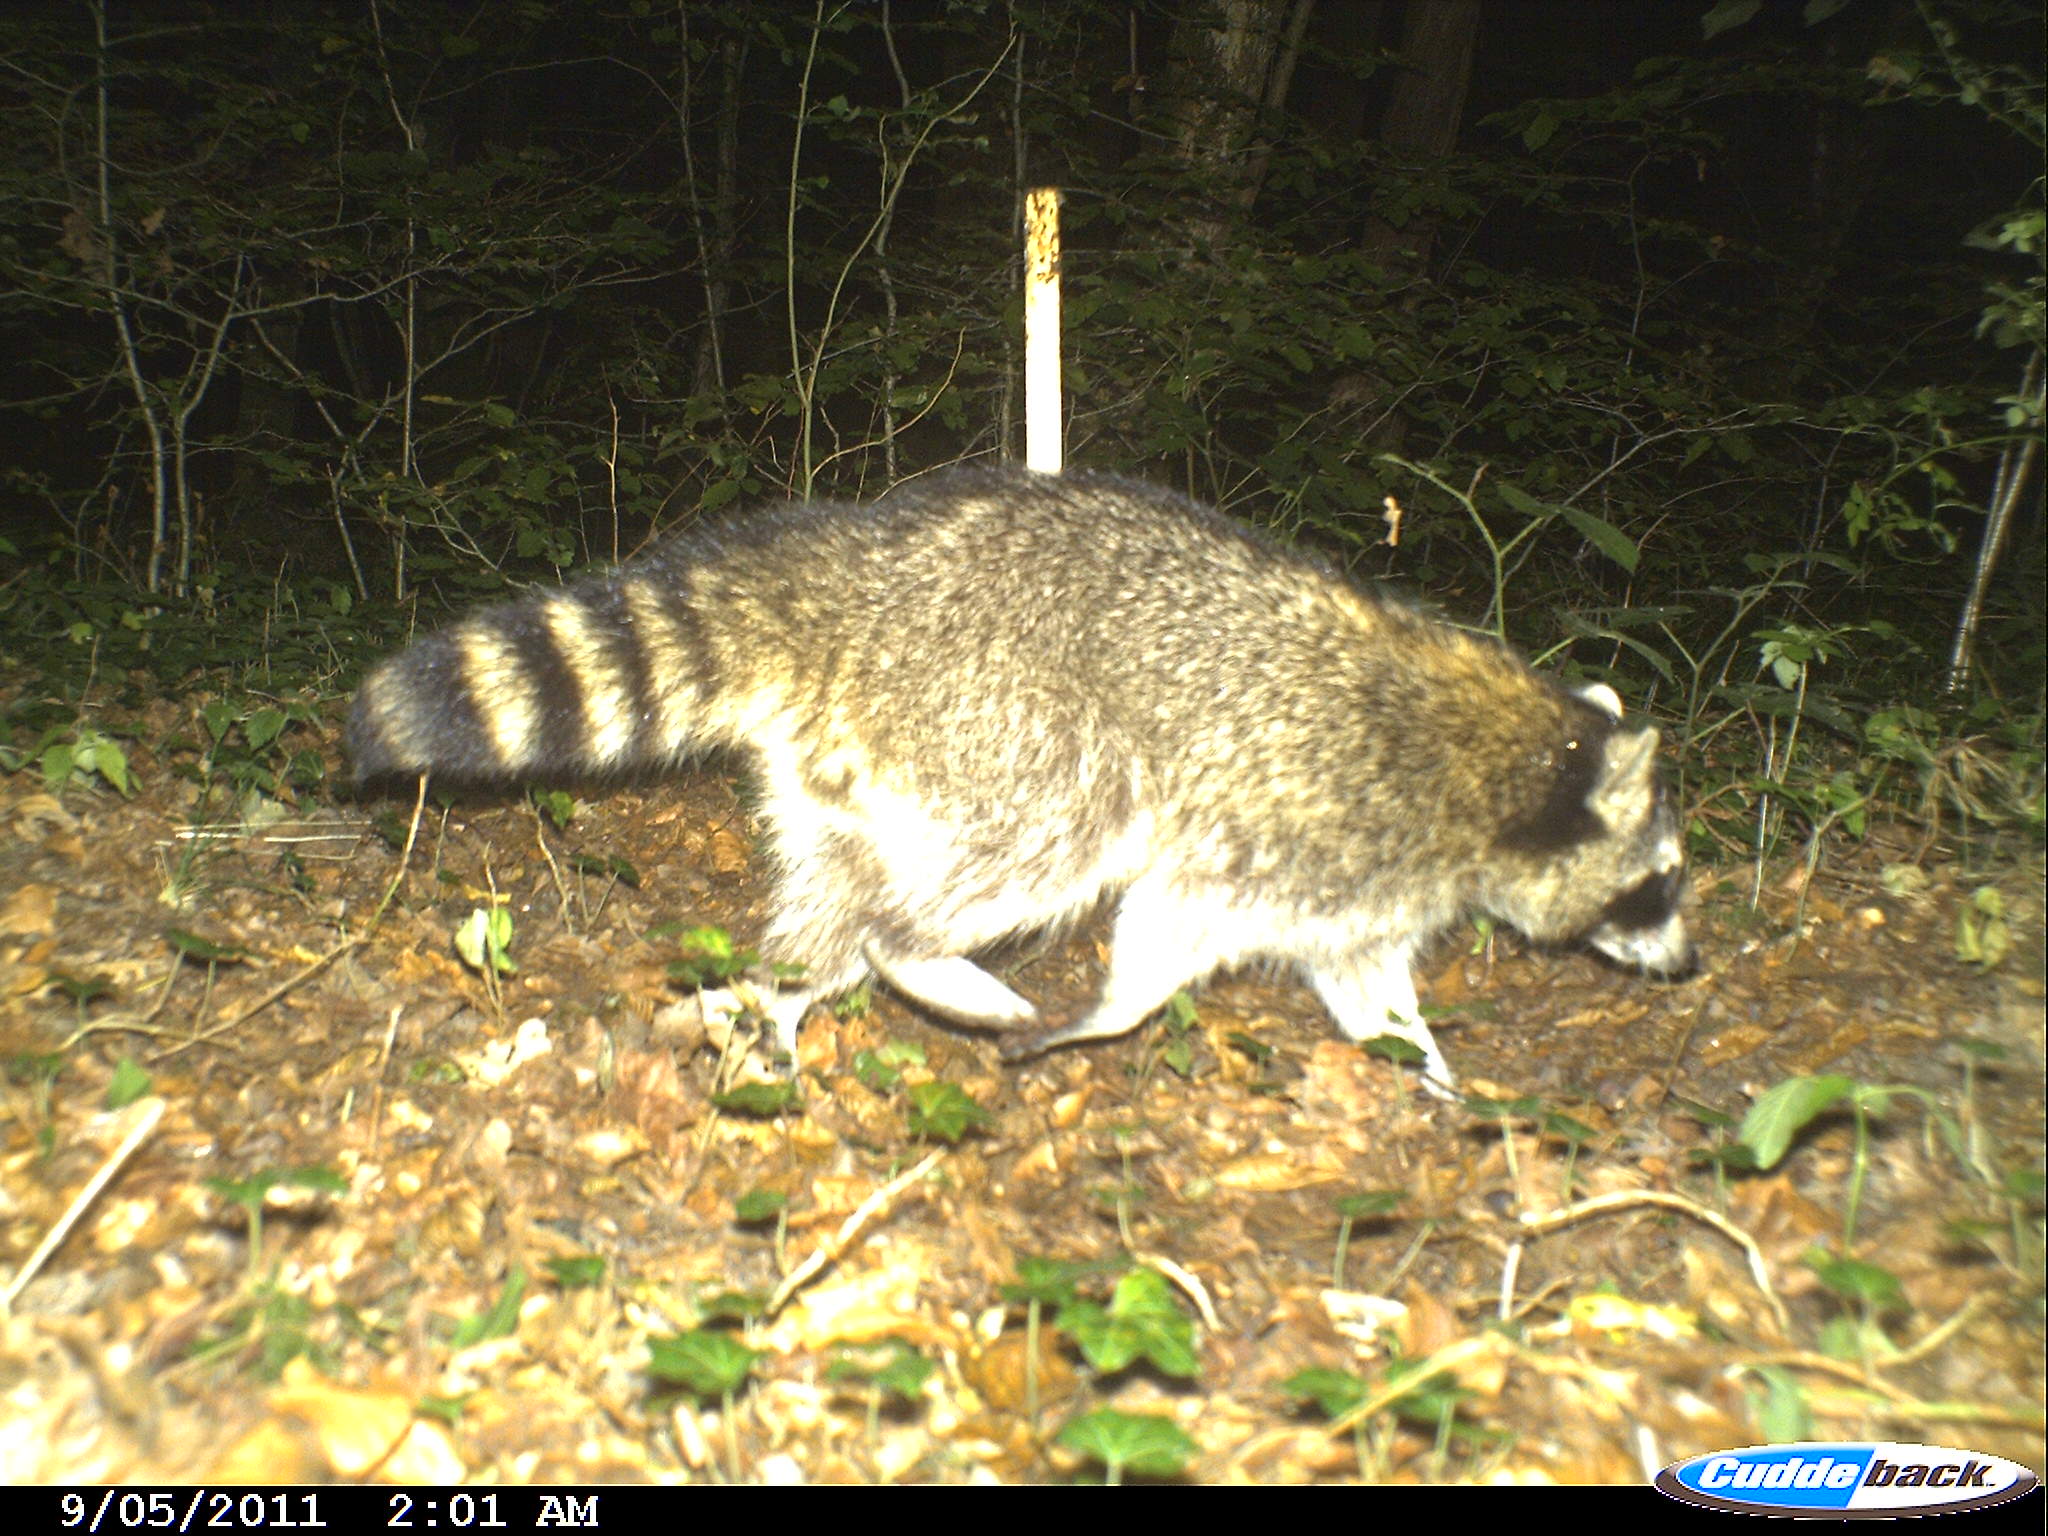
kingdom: Animalia
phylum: Chordata
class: Mammalia
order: Carnivora
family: Procyonidae
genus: Procyon
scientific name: Procyon lotor
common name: Raccoon
